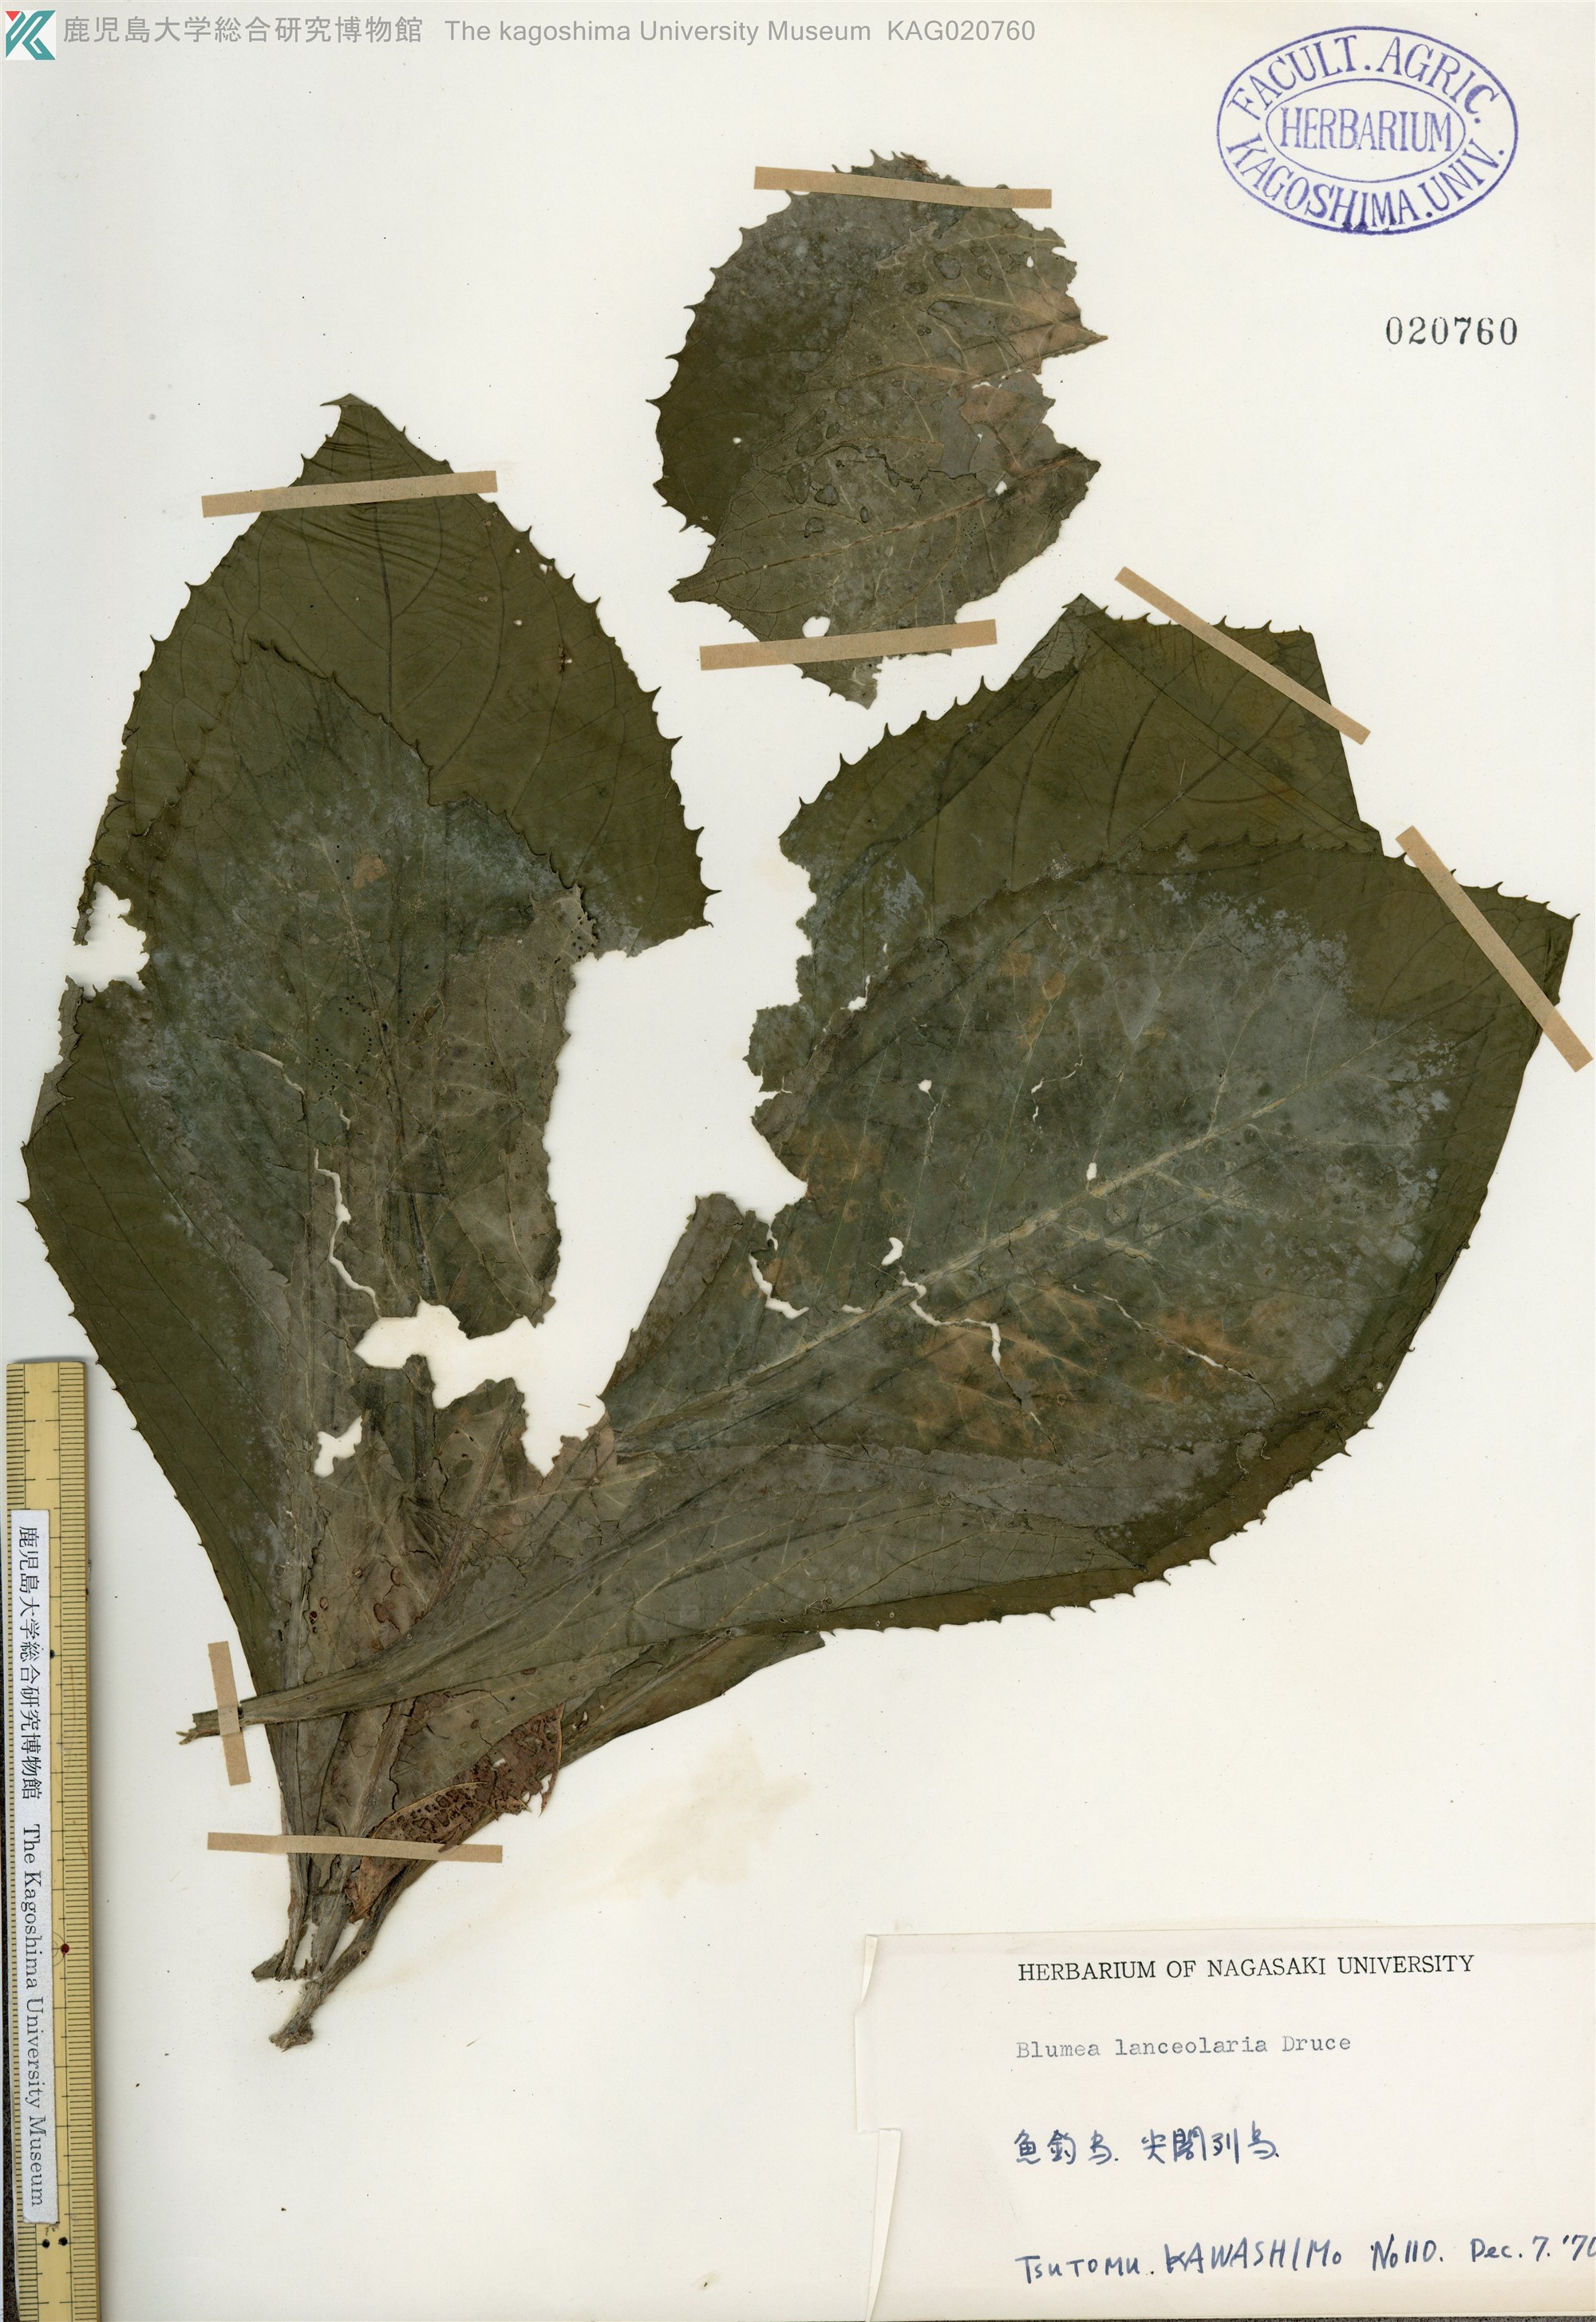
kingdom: Plantae
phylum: Tracheophyta
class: Magnoliopsida
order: Asterales
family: Asteraceae
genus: Blumea
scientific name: Blumea conspicua
